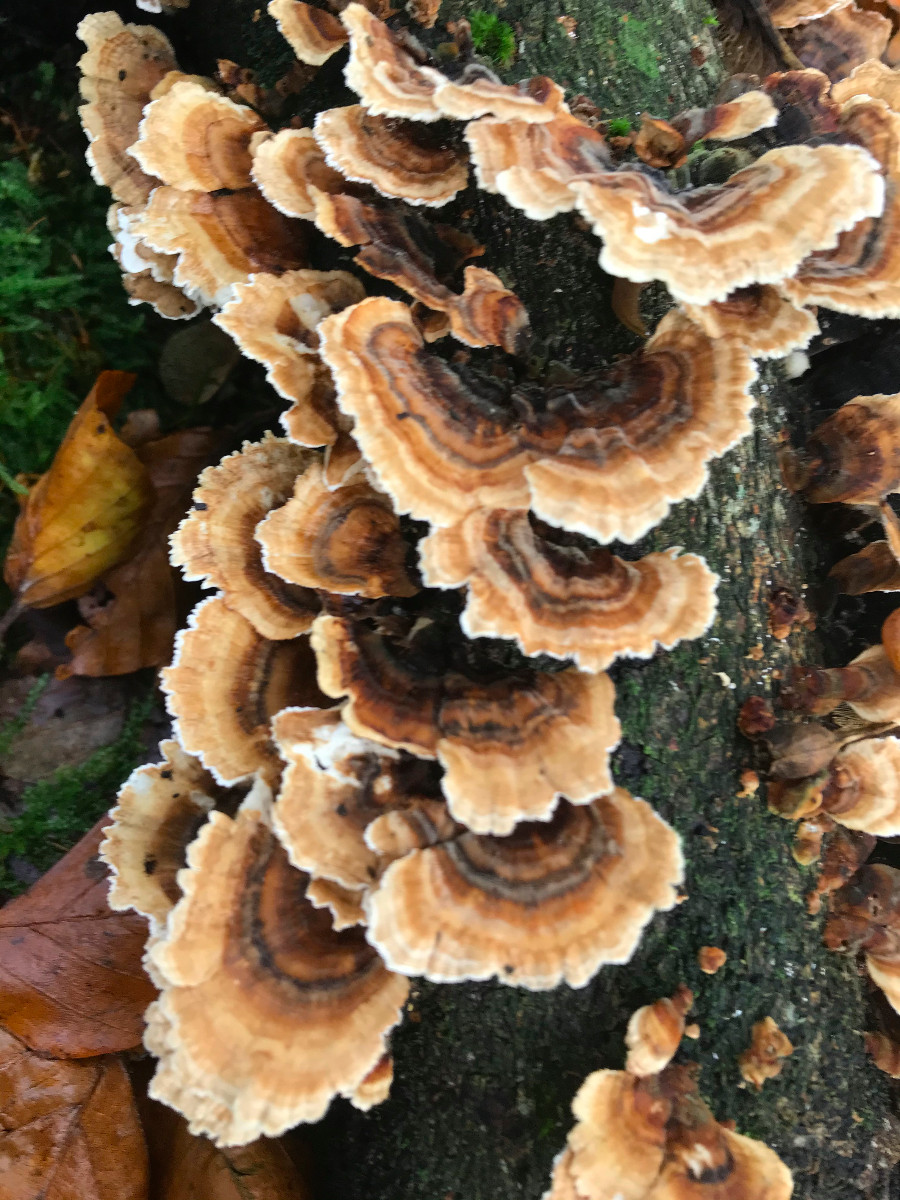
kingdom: Fungi
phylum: Basidiomycota
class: Agaricomycetes
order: Polyporales
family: Polyporaceae
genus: Trametes
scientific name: Trametes versicolor
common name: broget læderporesvamp
